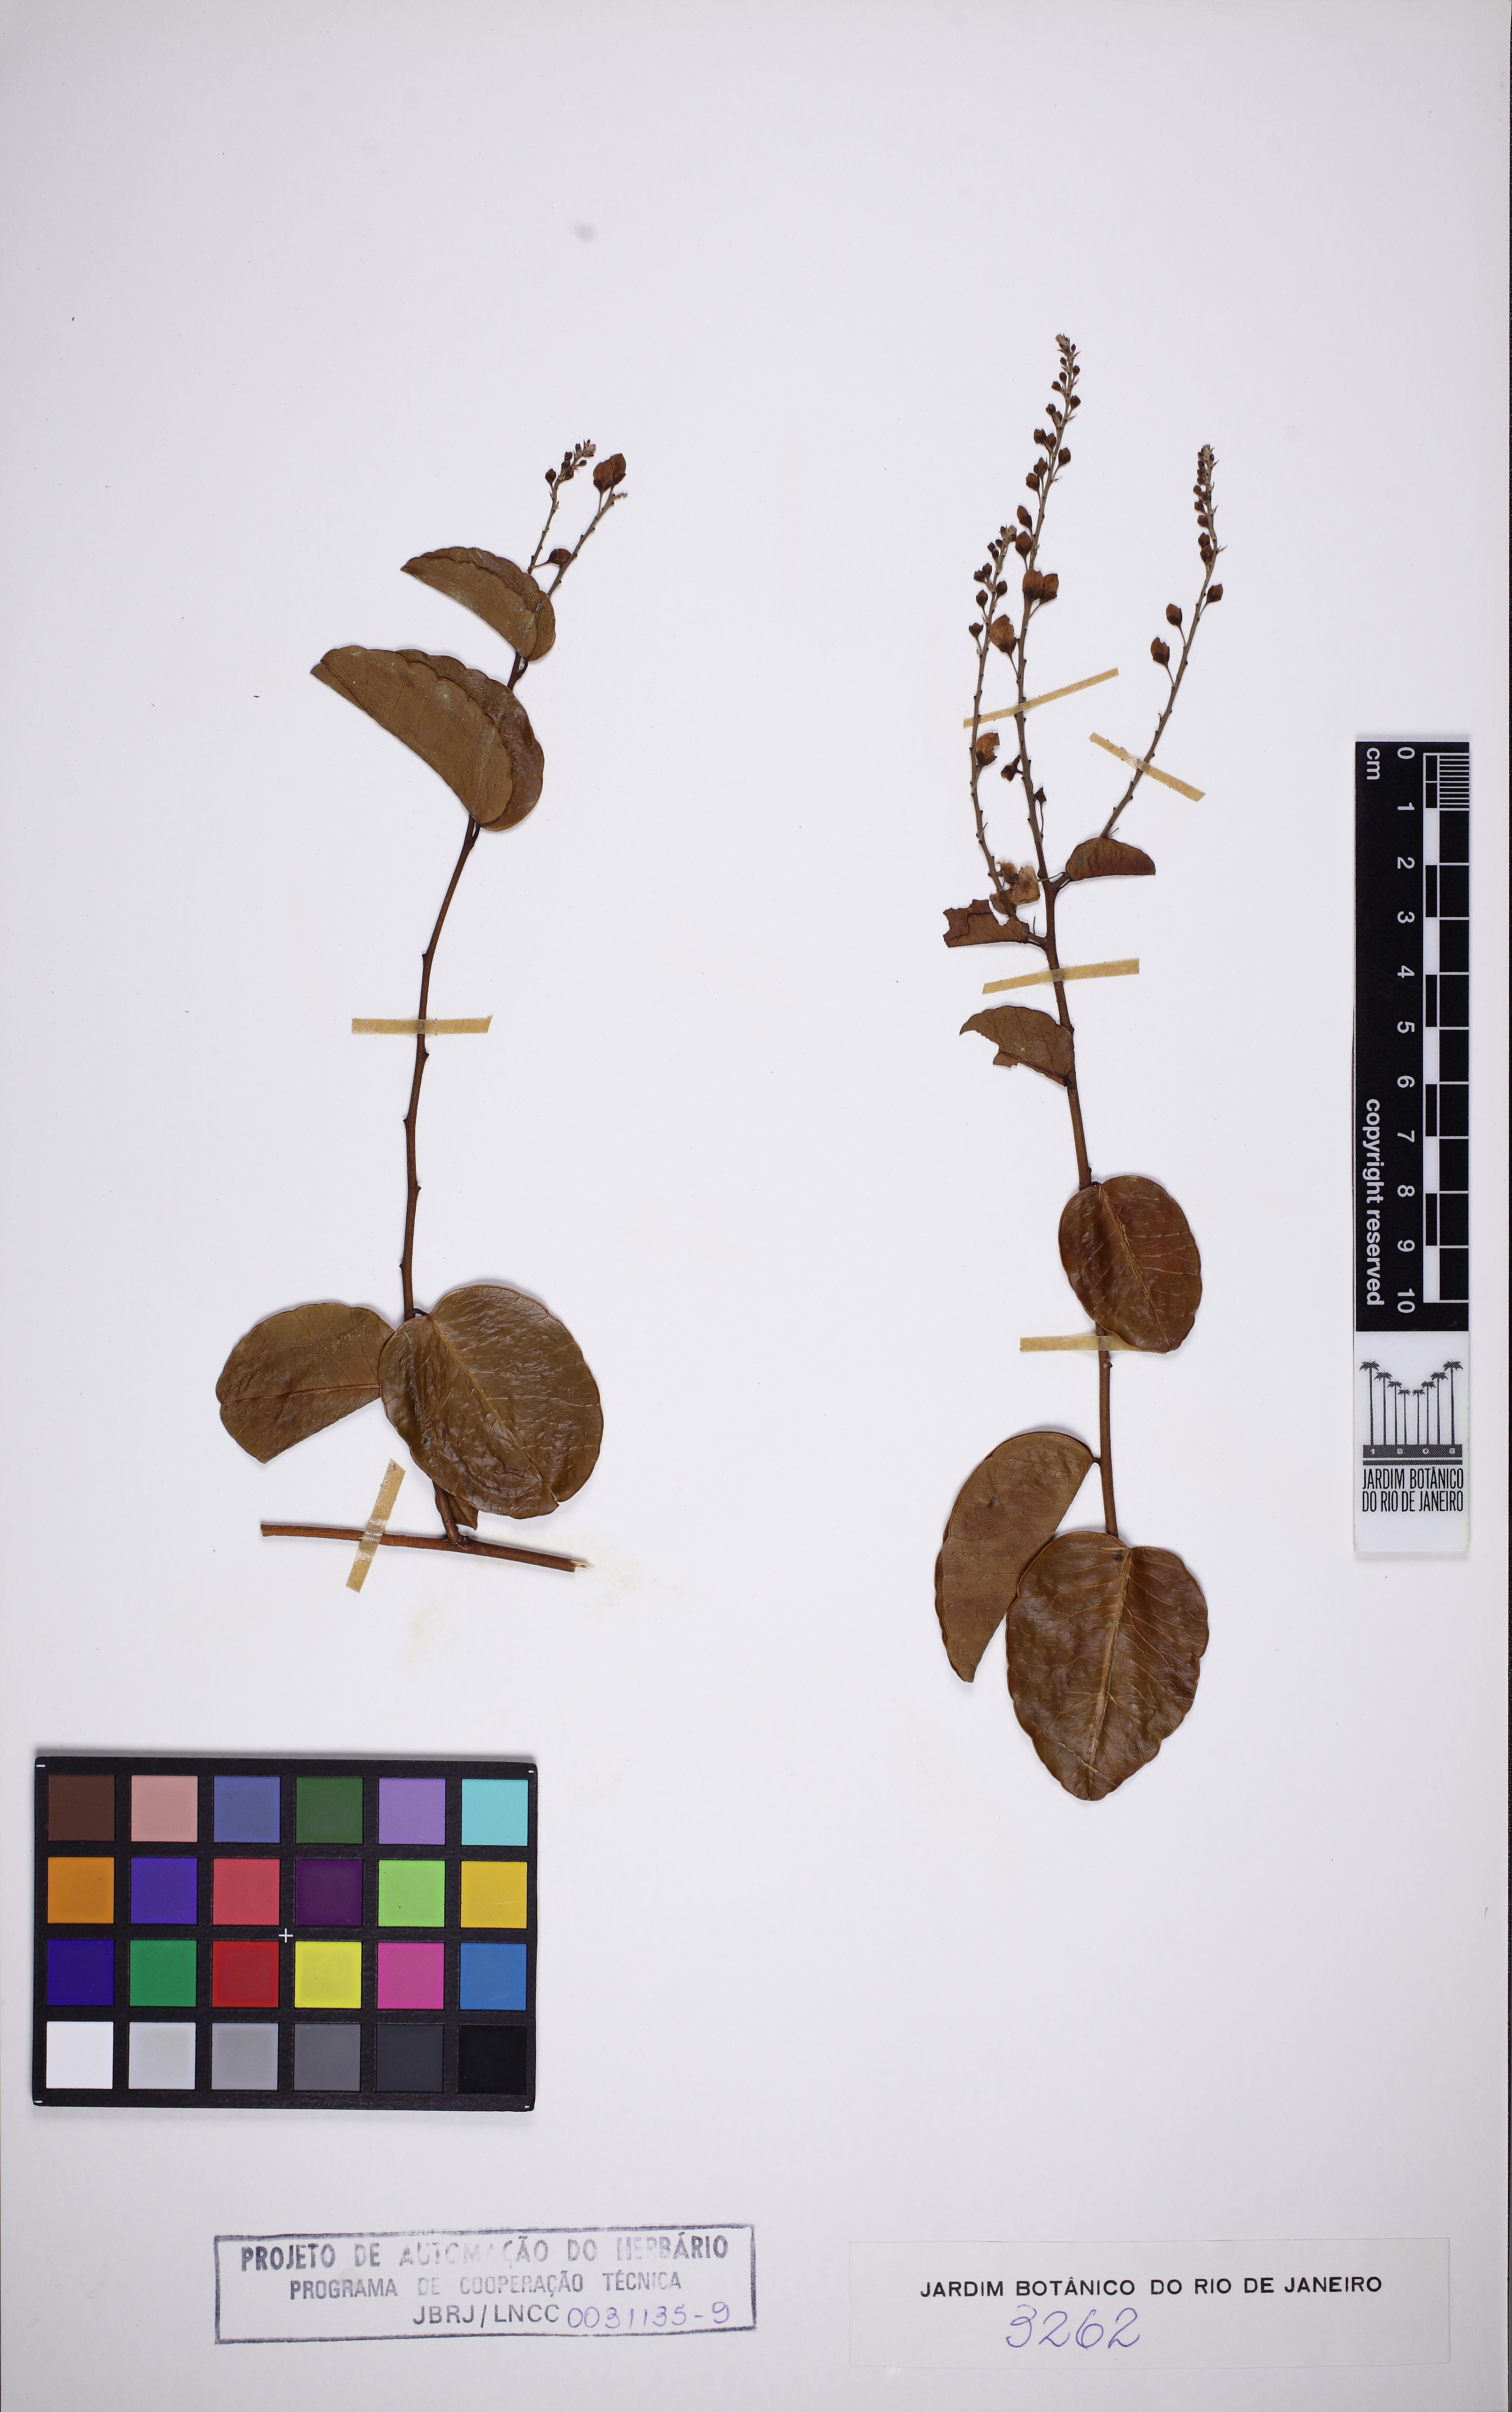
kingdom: Plantae
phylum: Tracheophyta
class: Magnoliopsida
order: Fabales
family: Polygalaceae
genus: Securidaca
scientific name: Securidaca marginata
